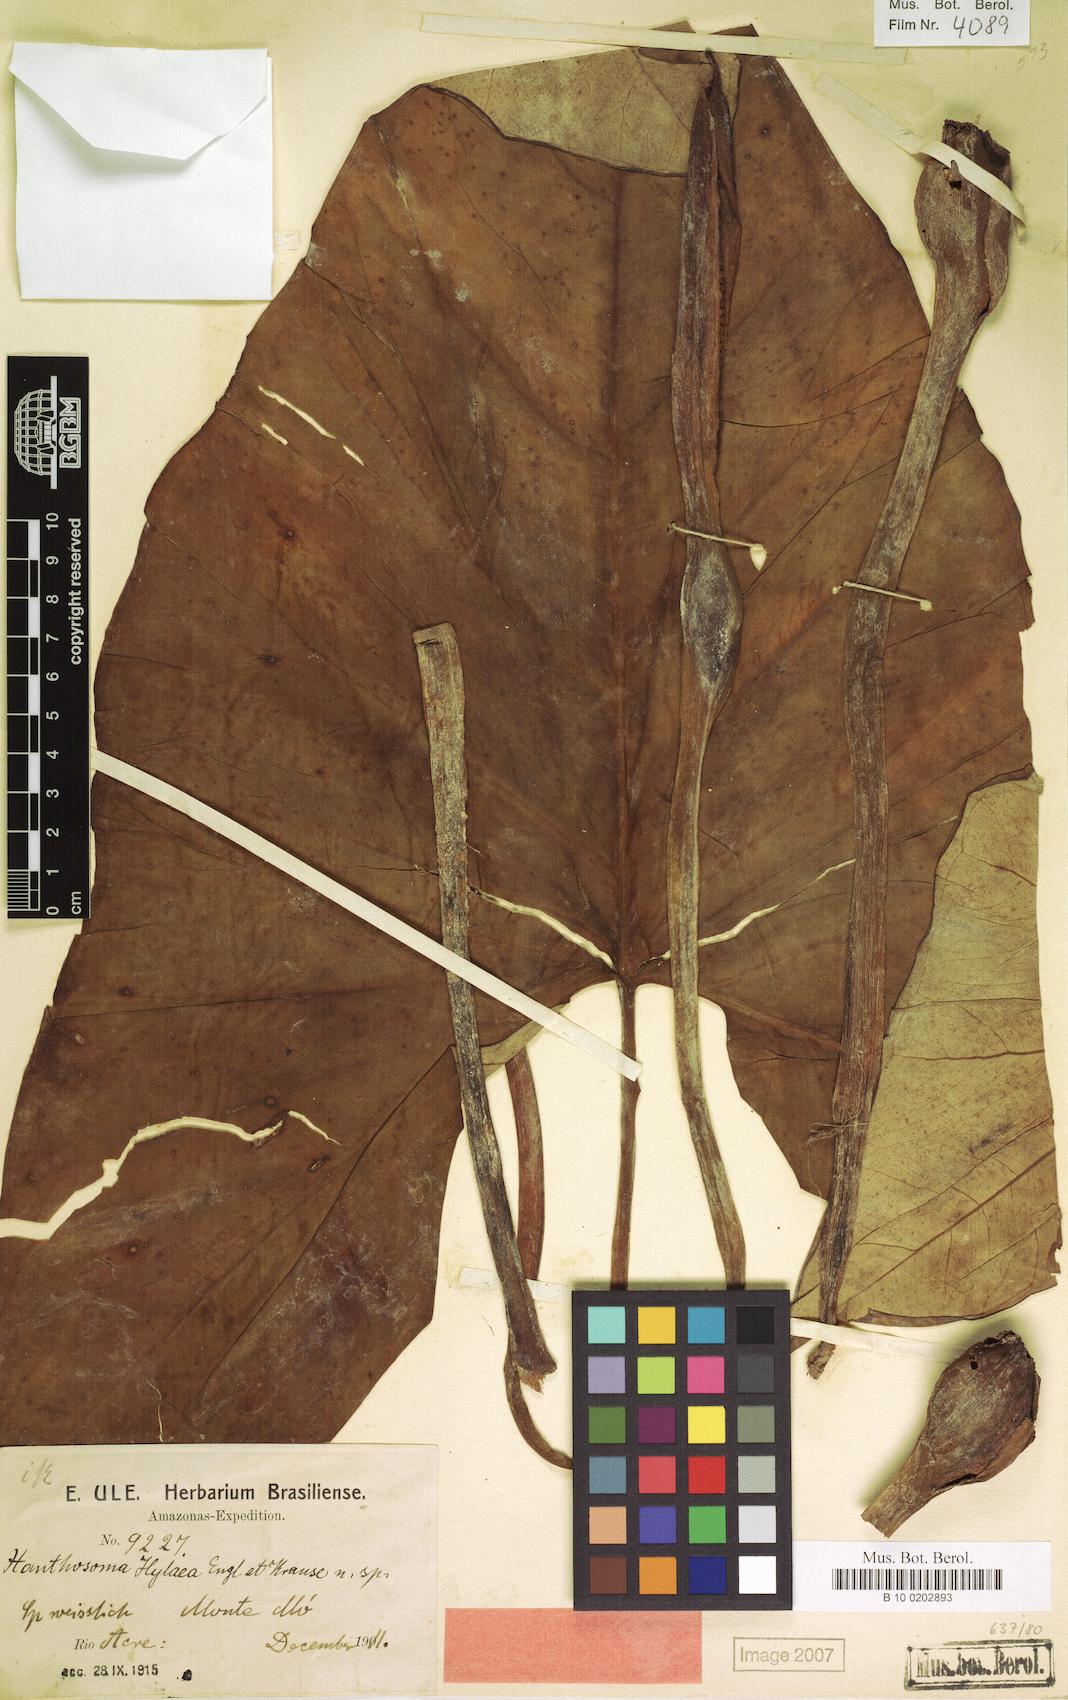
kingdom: Plantae
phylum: Tracheophyta
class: Liliopsida
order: Alismatales
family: Araceae
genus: Xanthosoma
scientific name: Xanthosoma hylaeae
